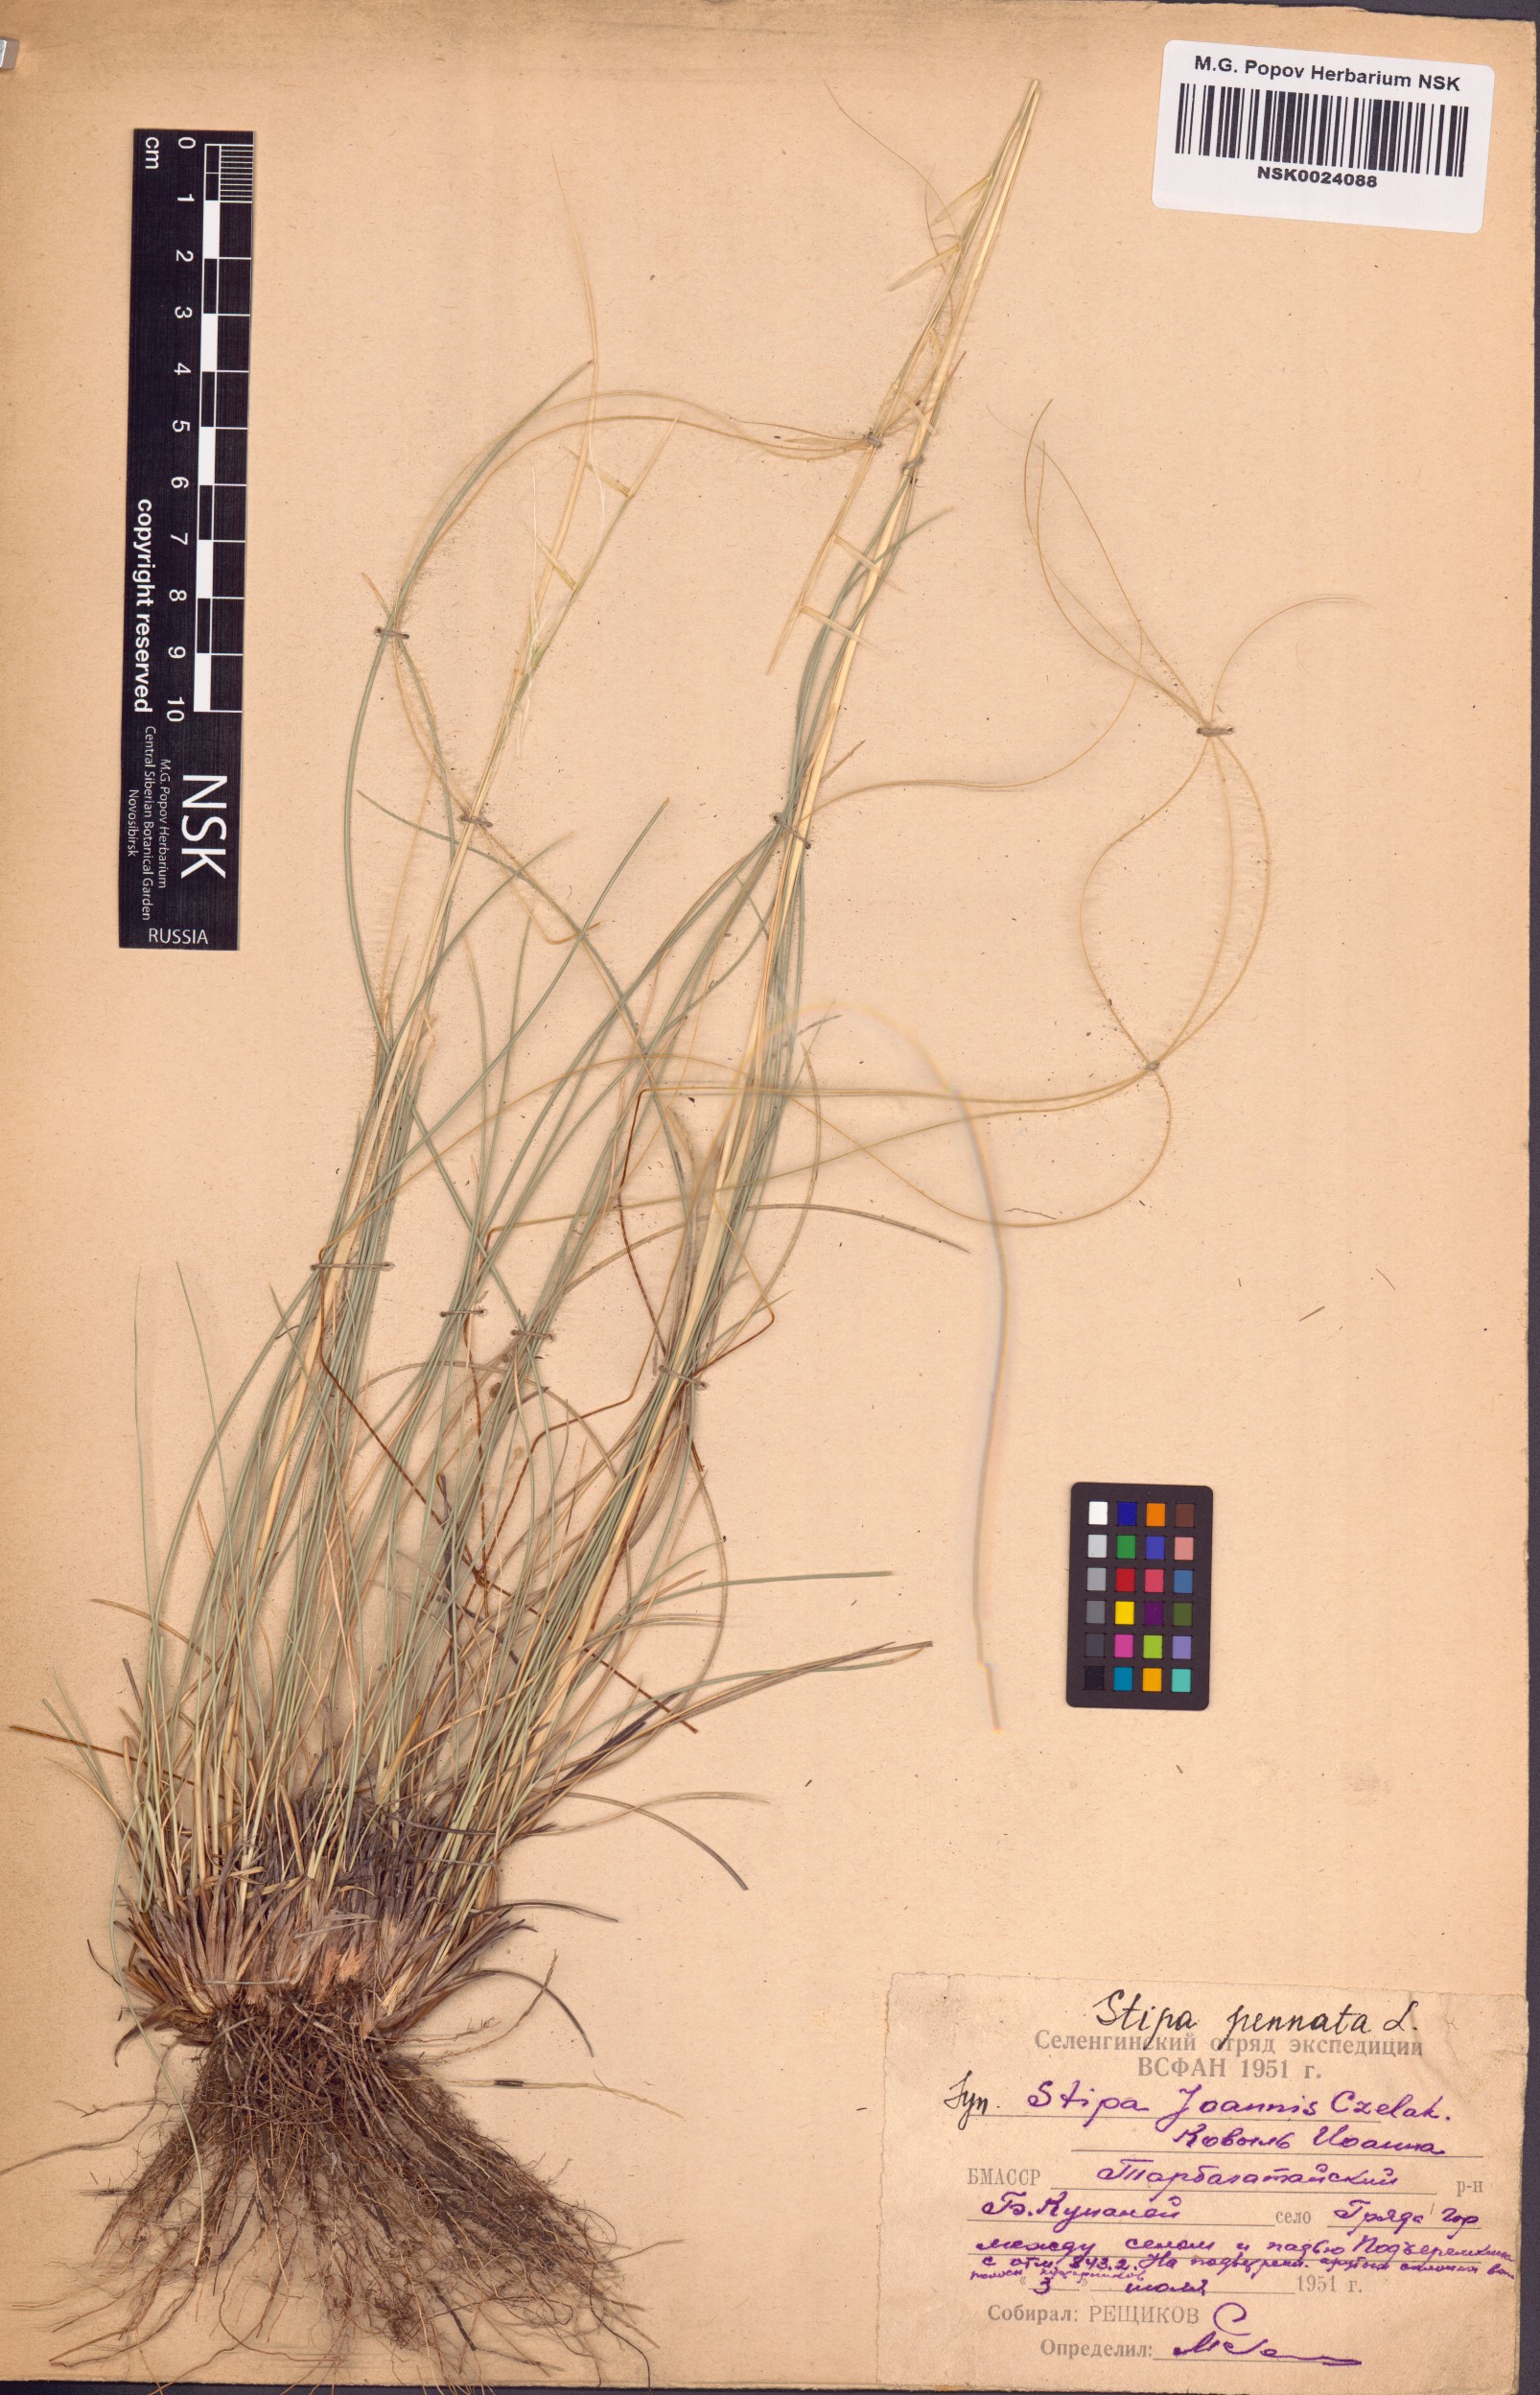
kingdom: Plantae
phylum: Tracheophyta
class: Liliopsida
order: Poales
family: Poaceae
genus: Stipa
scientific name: Stipa pennata
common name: European feather grass
